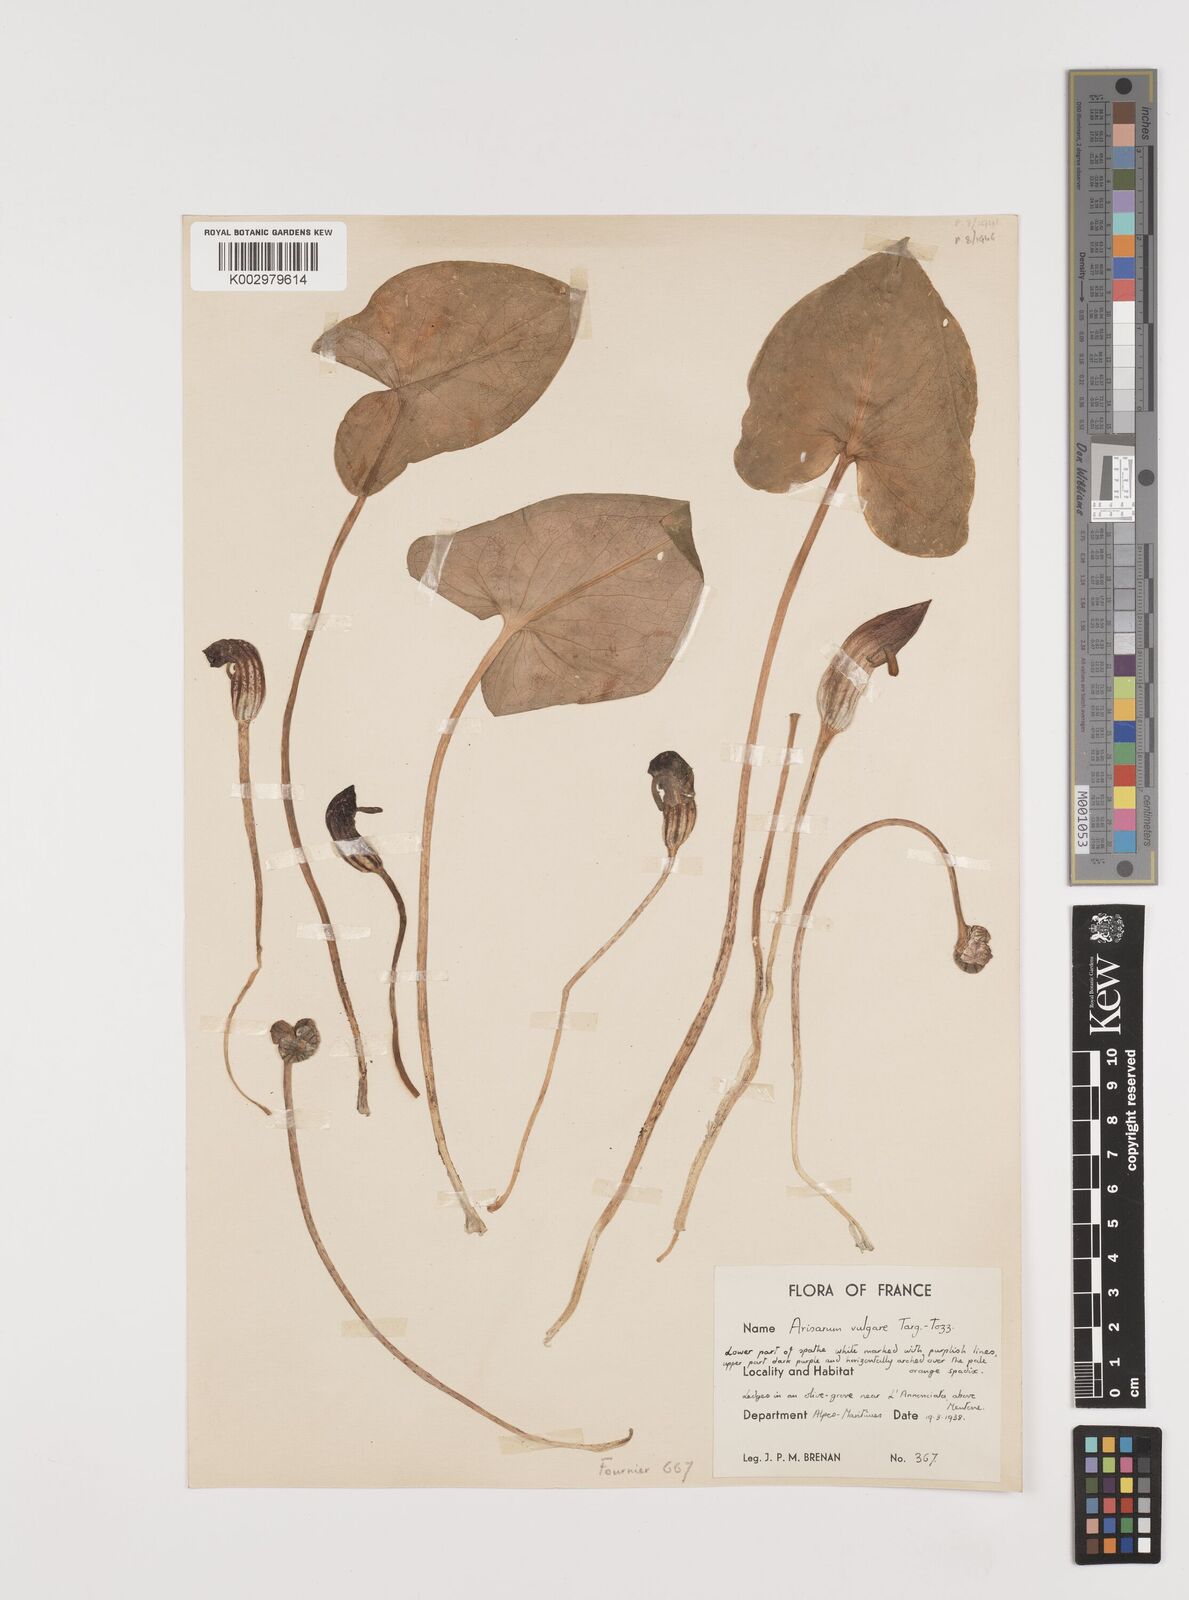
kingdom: Plantae
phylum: Tracheophyta
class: Liliopsida
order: Alismatales
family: Araceae
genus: Arisarum
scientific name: Arisarum vulgare
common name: Common arisarum
